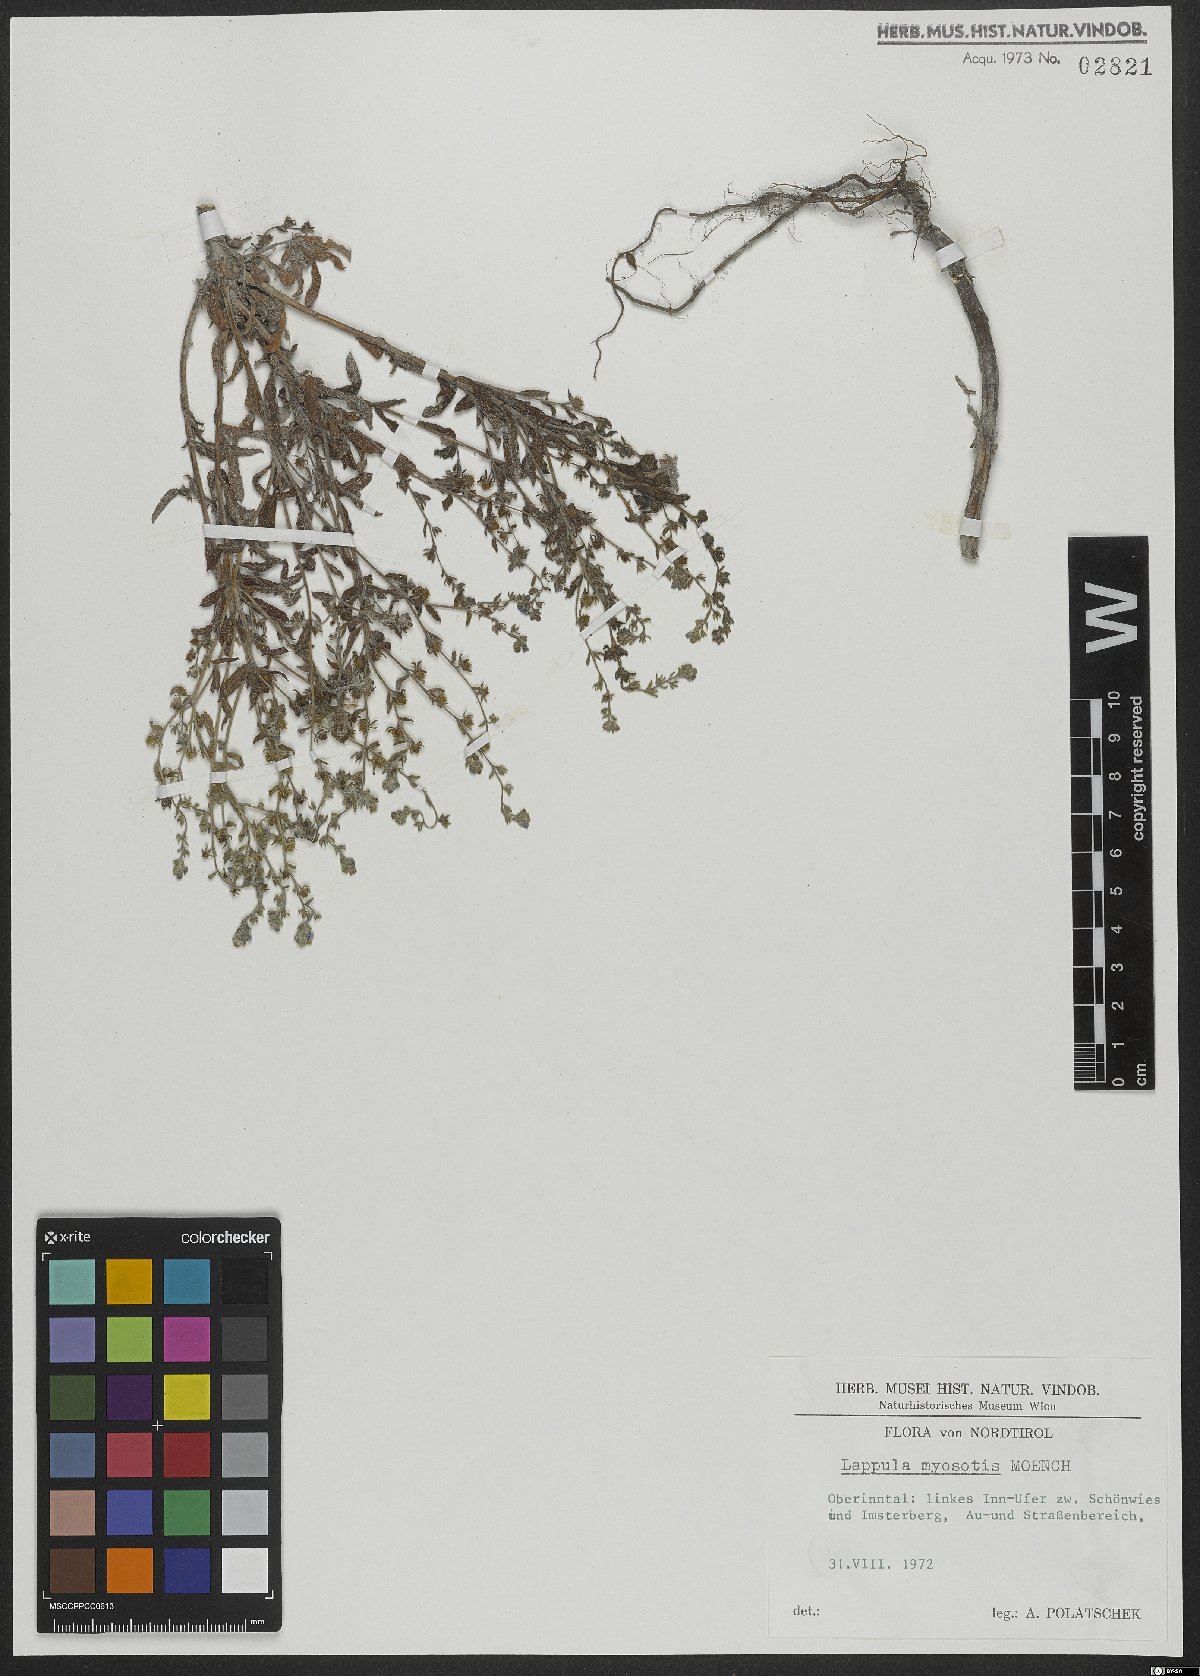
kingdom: Plantae
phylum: Tracheophyta
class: Magnoliopsida
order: Boraginales
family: Boraginaceae
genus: Lappula
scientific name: Lappula squarrosa
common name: European stickseed
